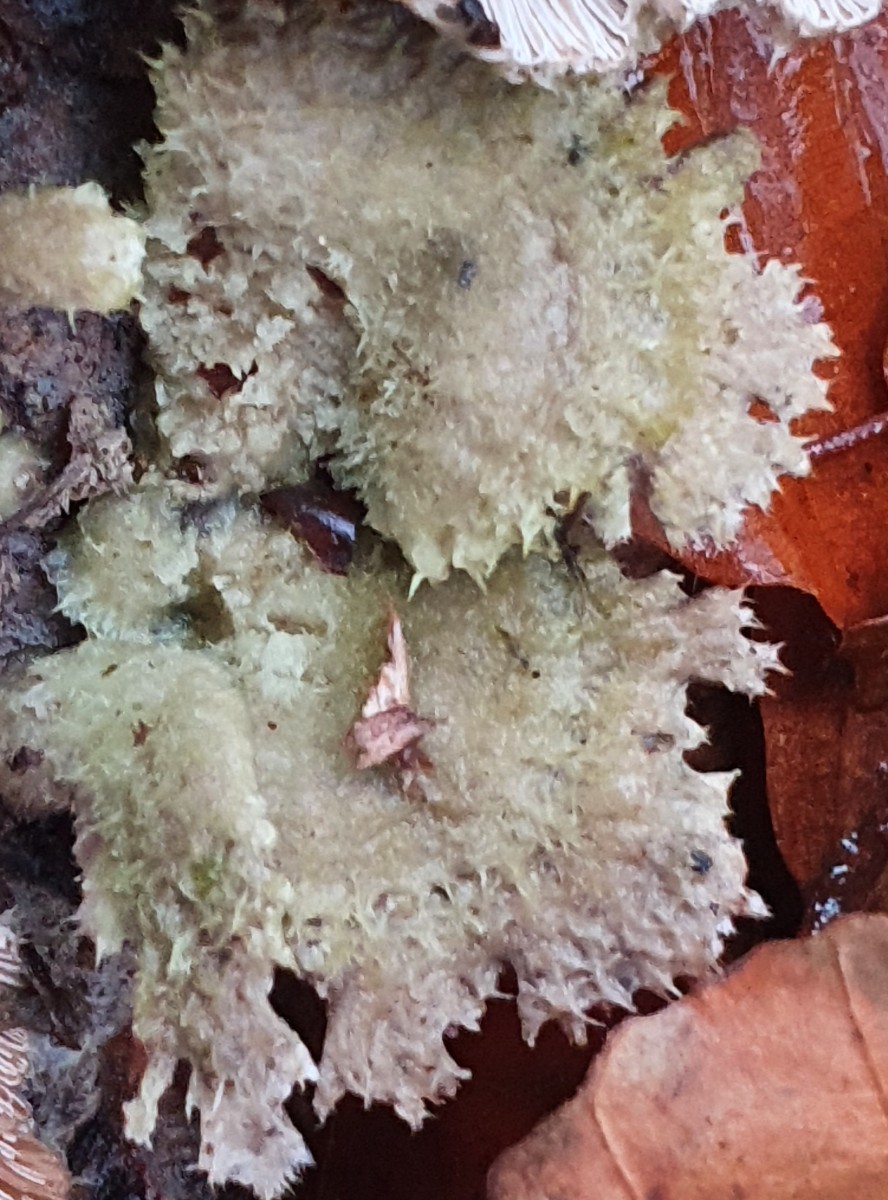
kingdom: Fungi
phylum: Basidiomycota
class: Agaricomycetes
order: Agaricales
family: Schizophyllaceae
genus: Schizophyllum
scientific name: Schizophyllum commune
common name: kløvblad
